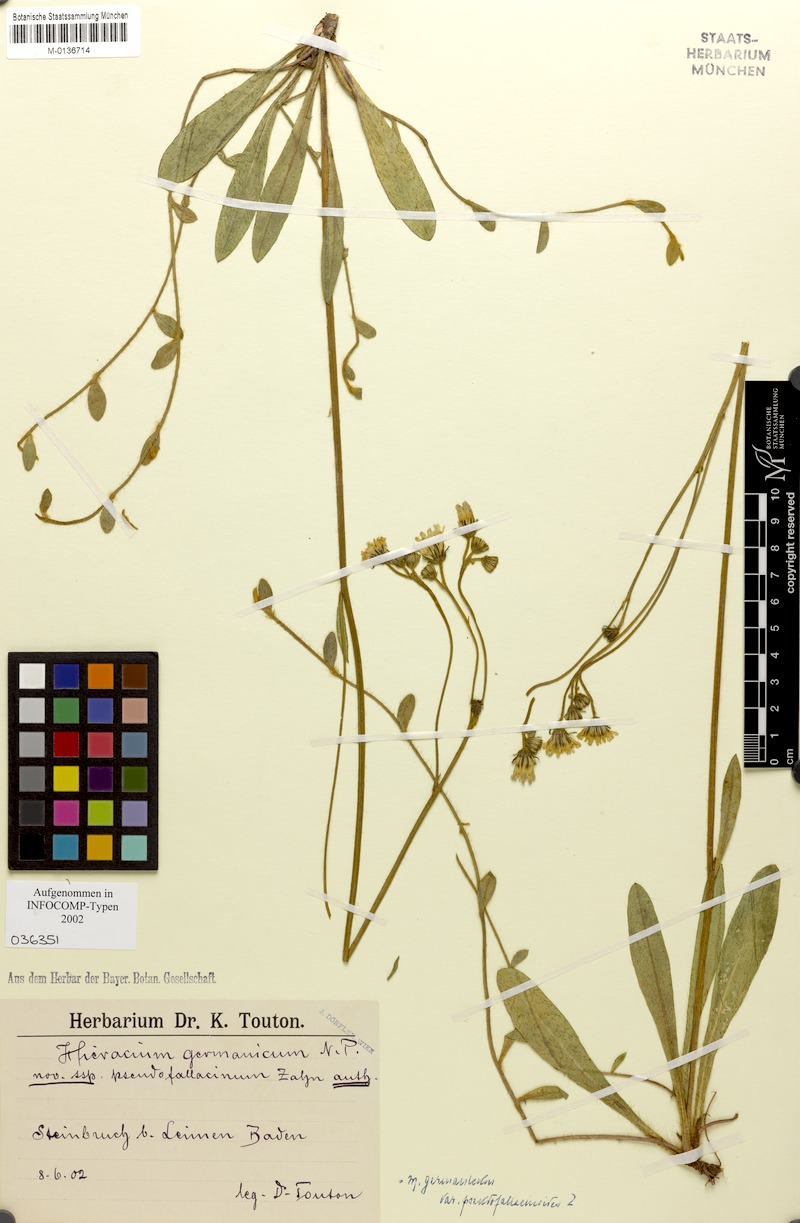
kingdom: Plantae
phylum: Tracheophyta
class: Magnoliopsida
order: Asterales
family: Asteraceae
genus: Pilosella
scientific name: Pilosella fallacina
